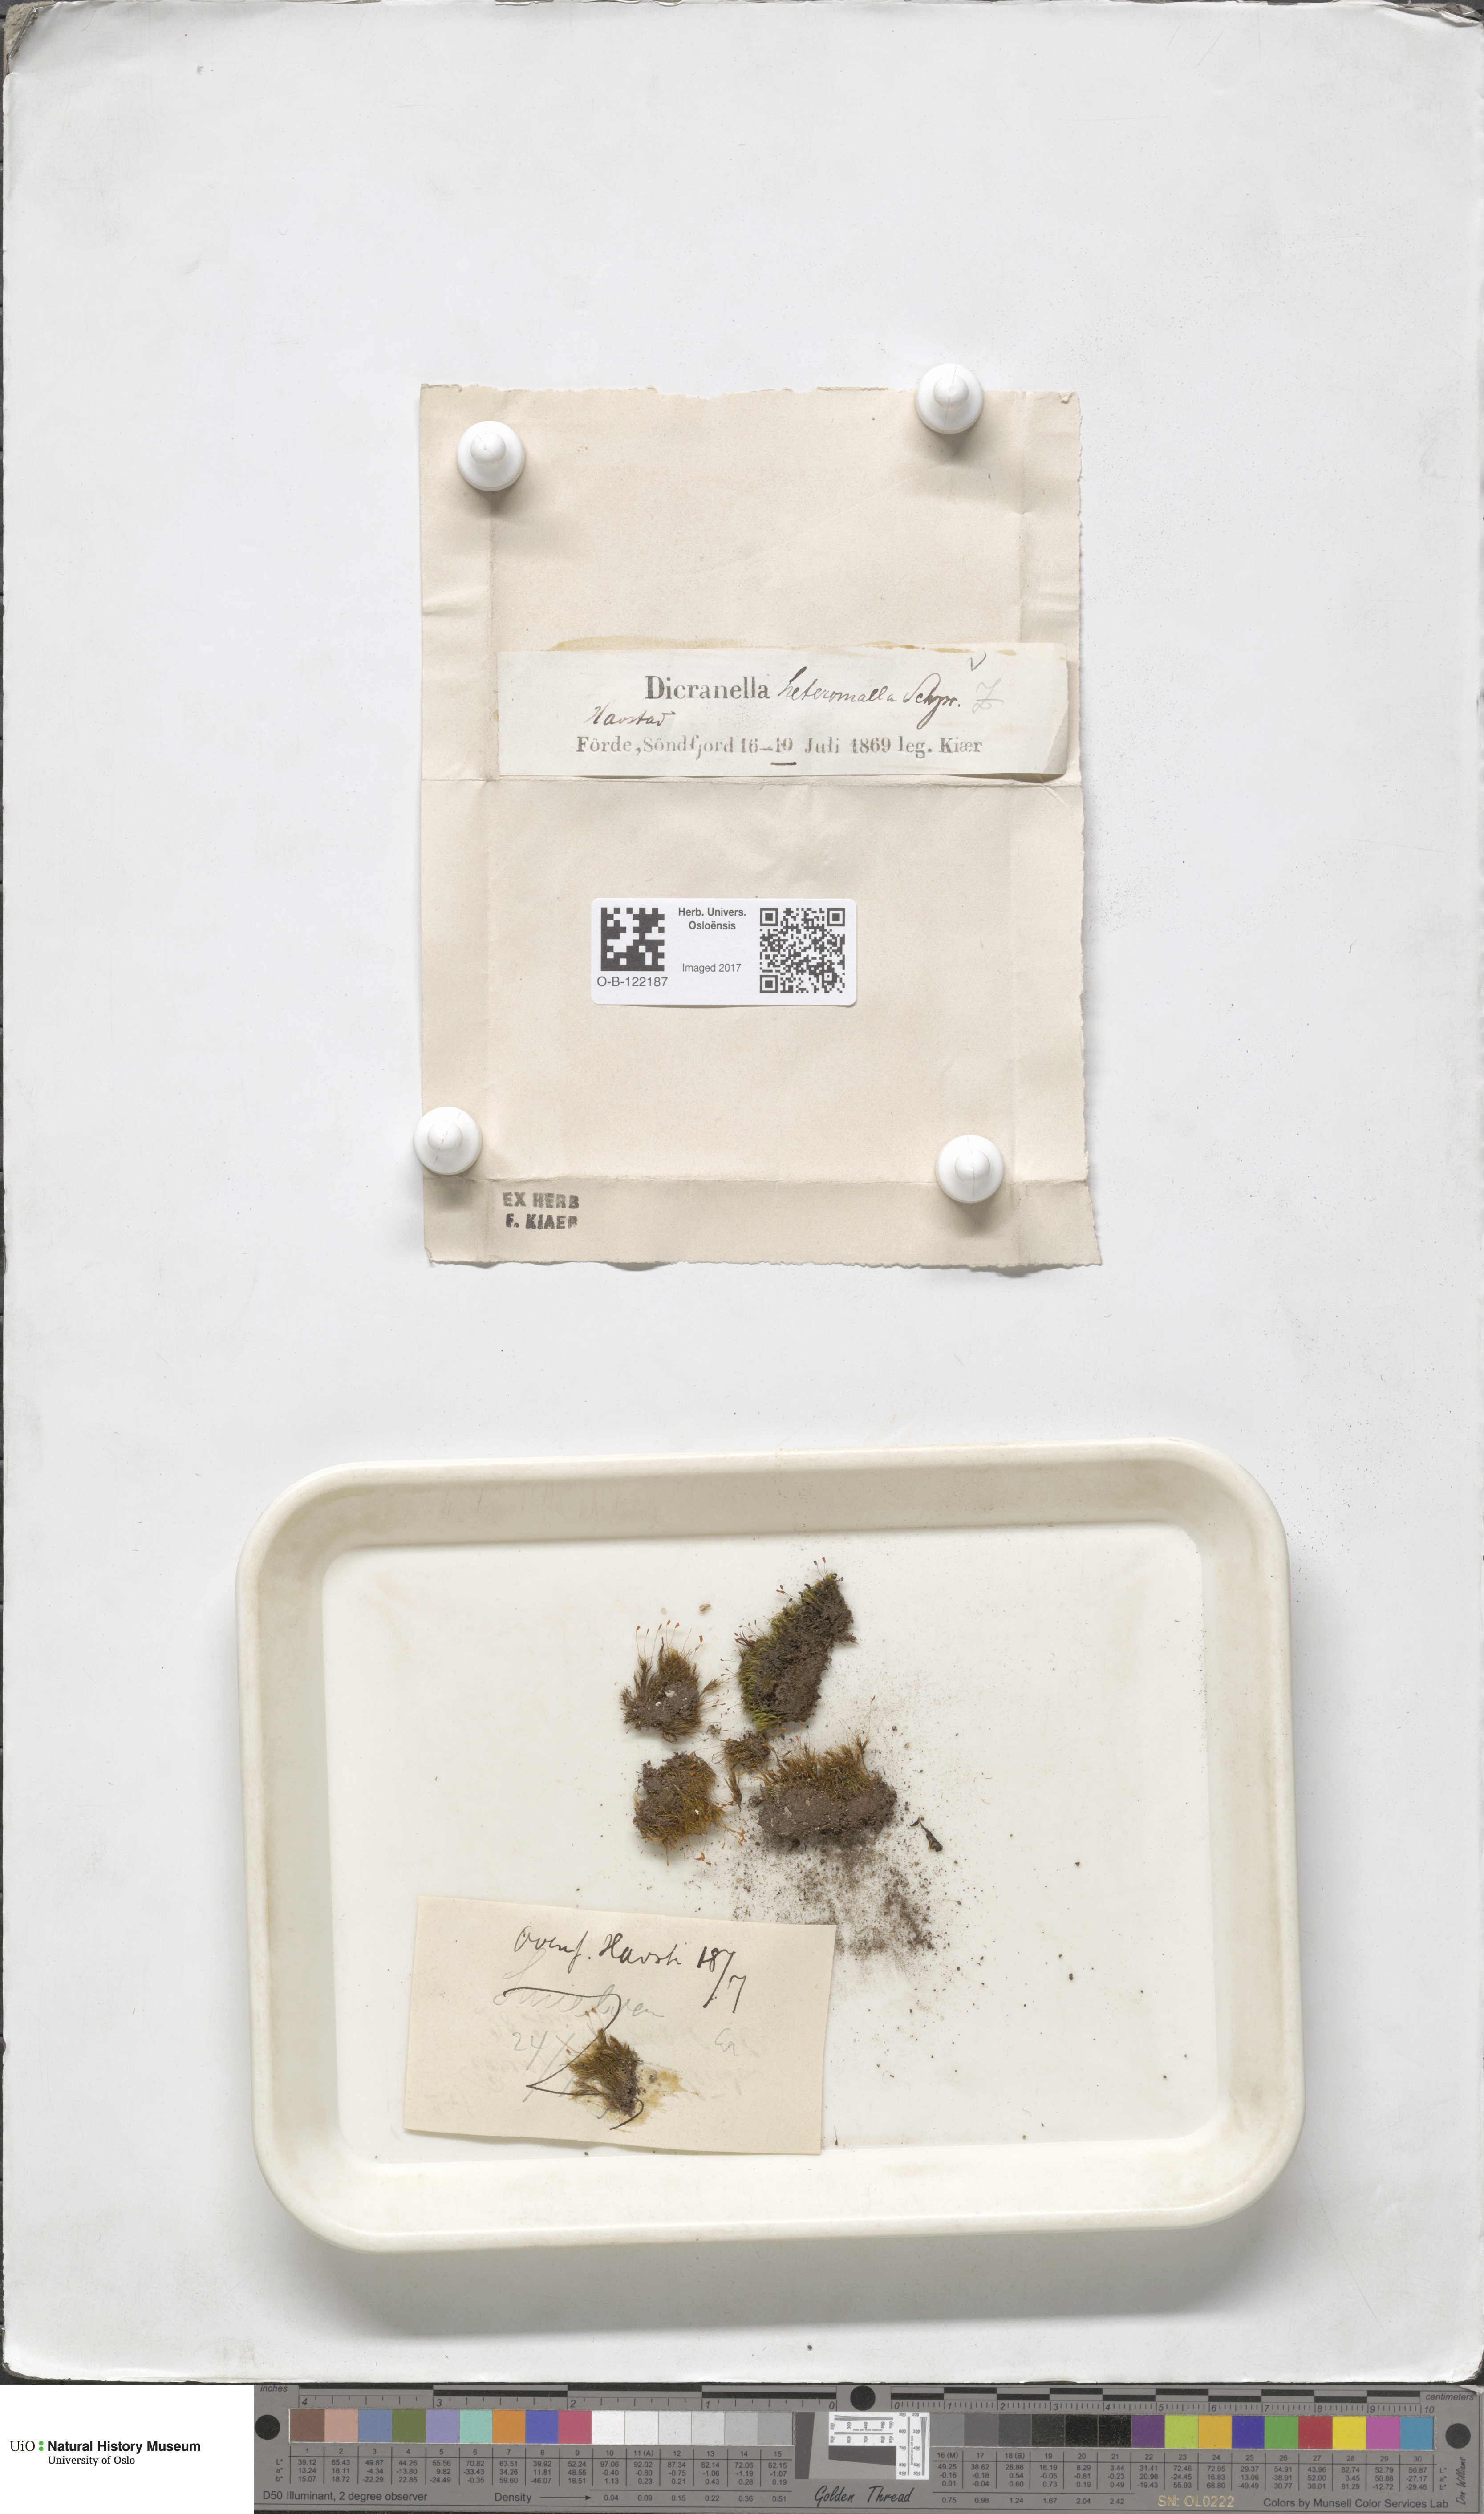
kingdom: Plantae
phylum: Bryophyta
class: Bryopsida
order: Dicranales
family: Dicranellaceae
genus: Dicranella
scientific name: Dicranella heteromalla
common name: Silky forklet moss
